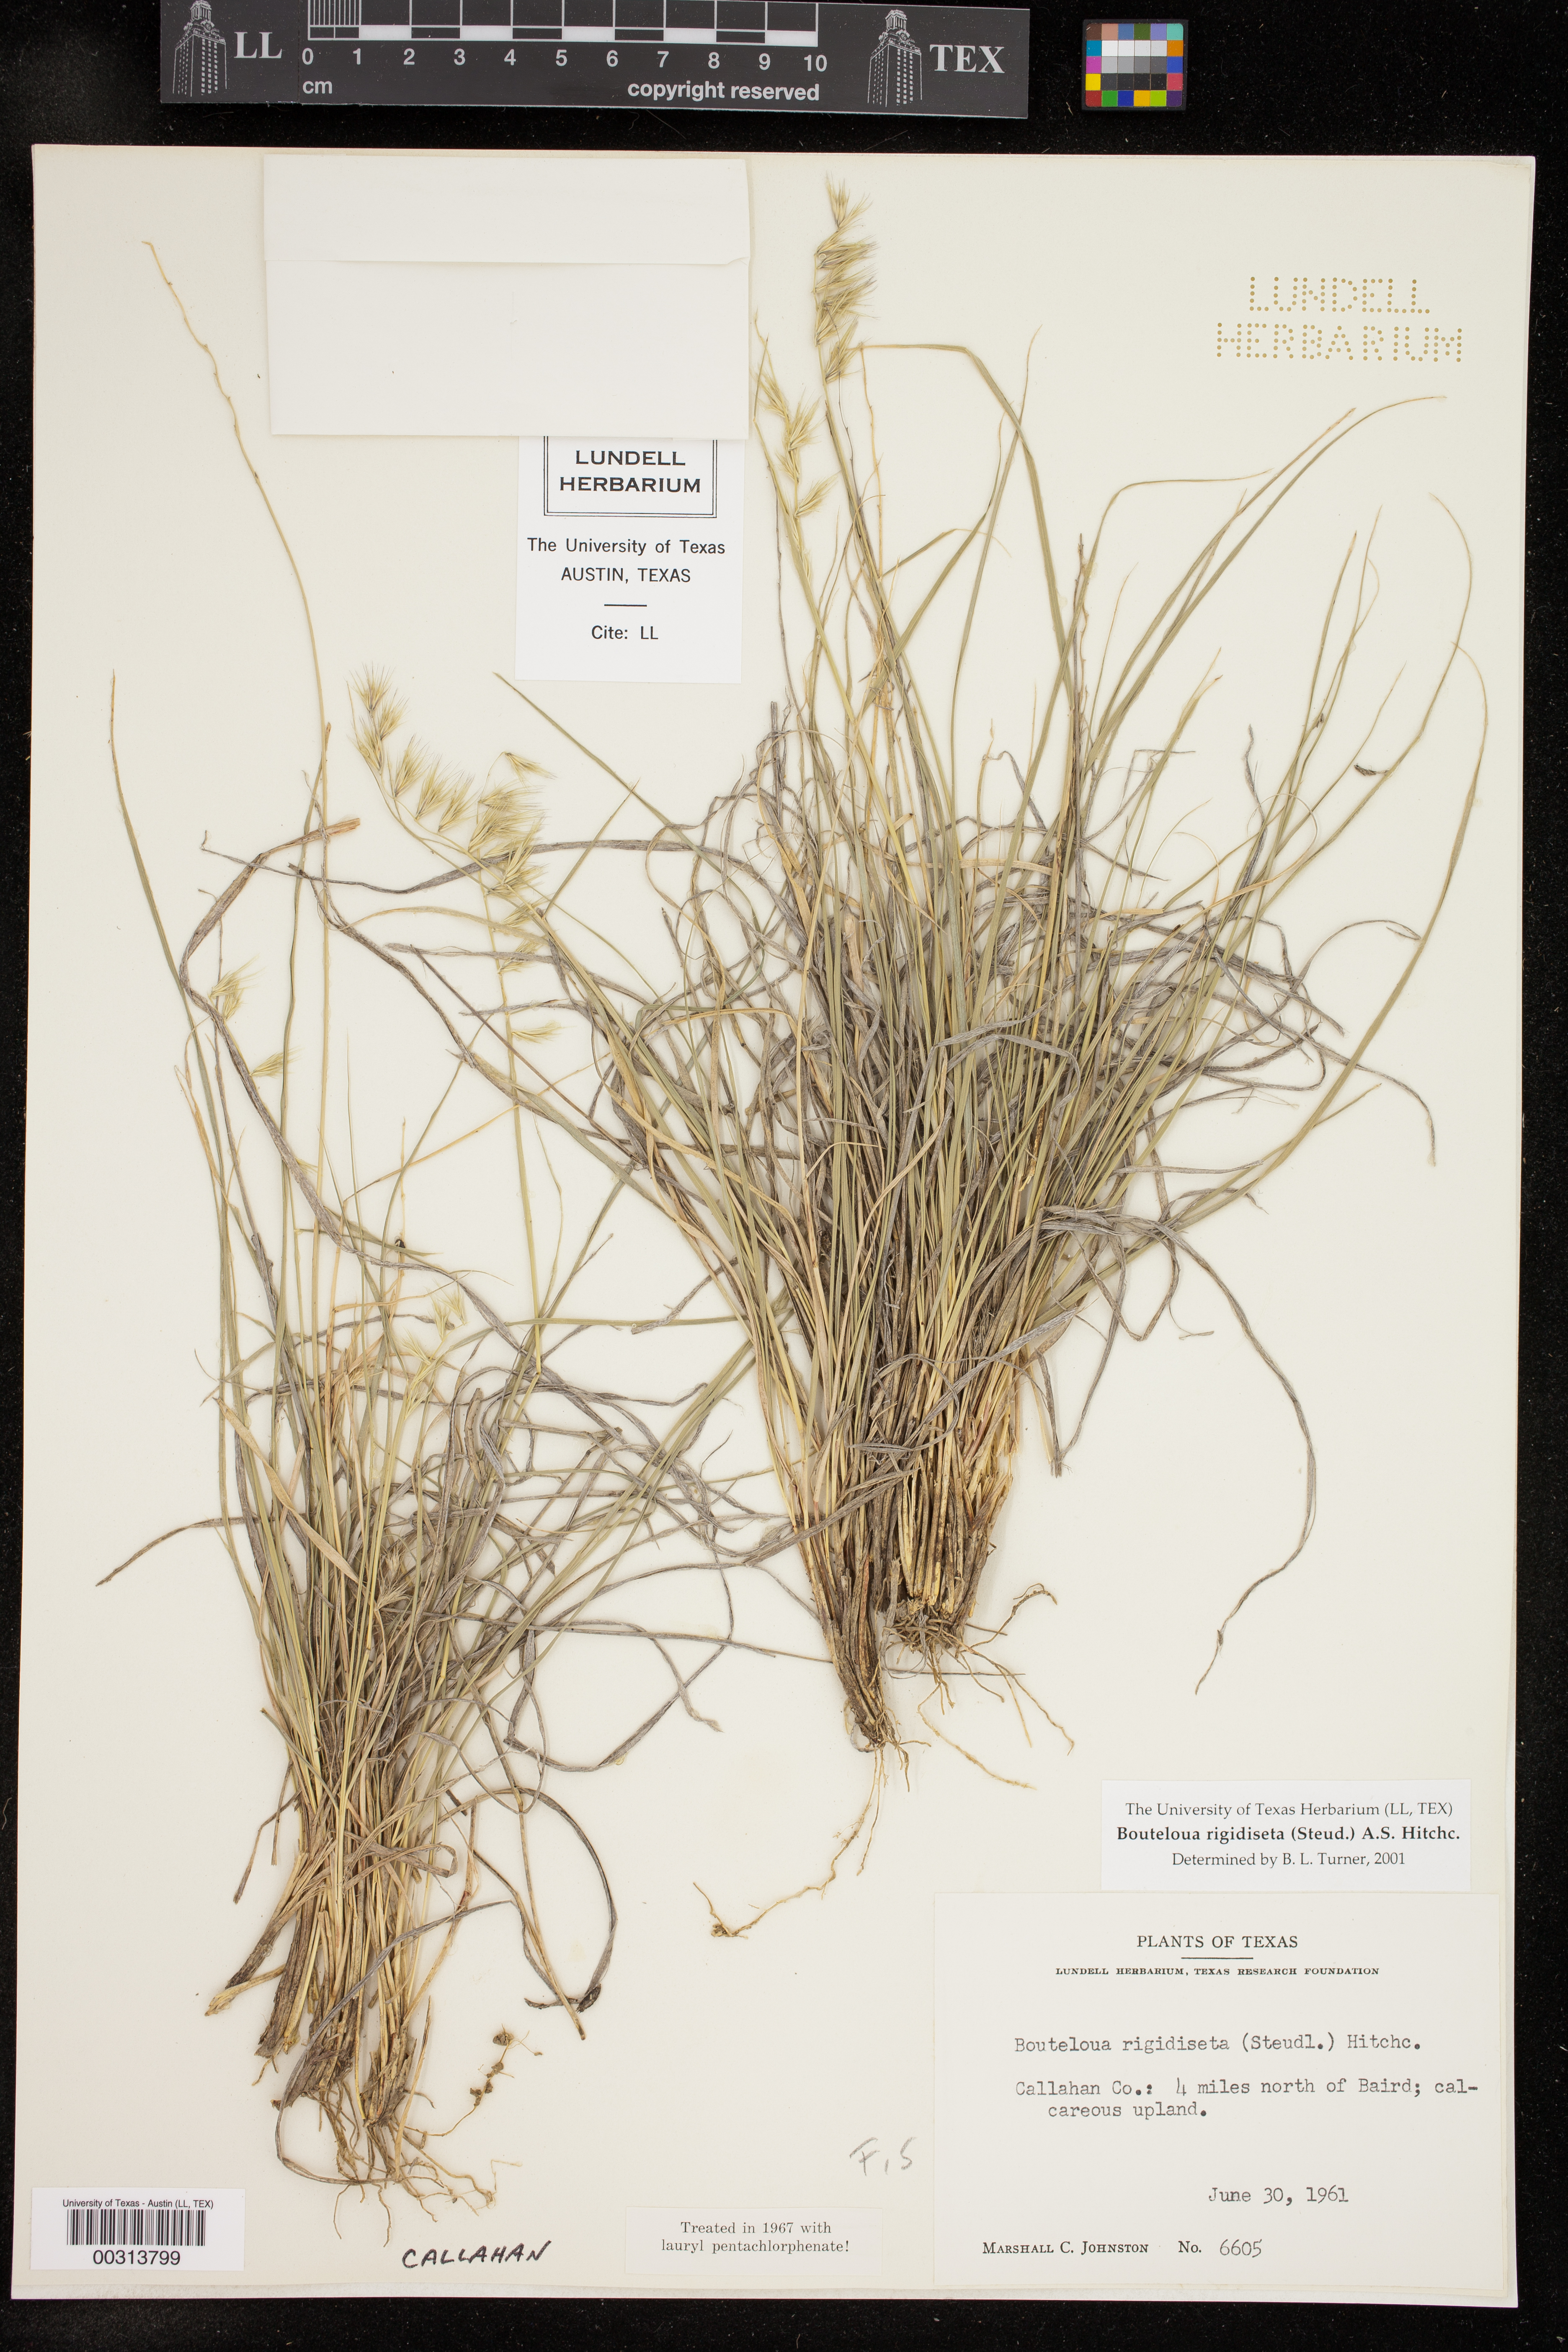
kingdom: Plantae
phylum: Tracheophyta
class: Liliopsida
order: Poales
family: Poaceae
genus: Bouteloua
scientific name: Bouteloua rigidiseta
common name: Texas grama
